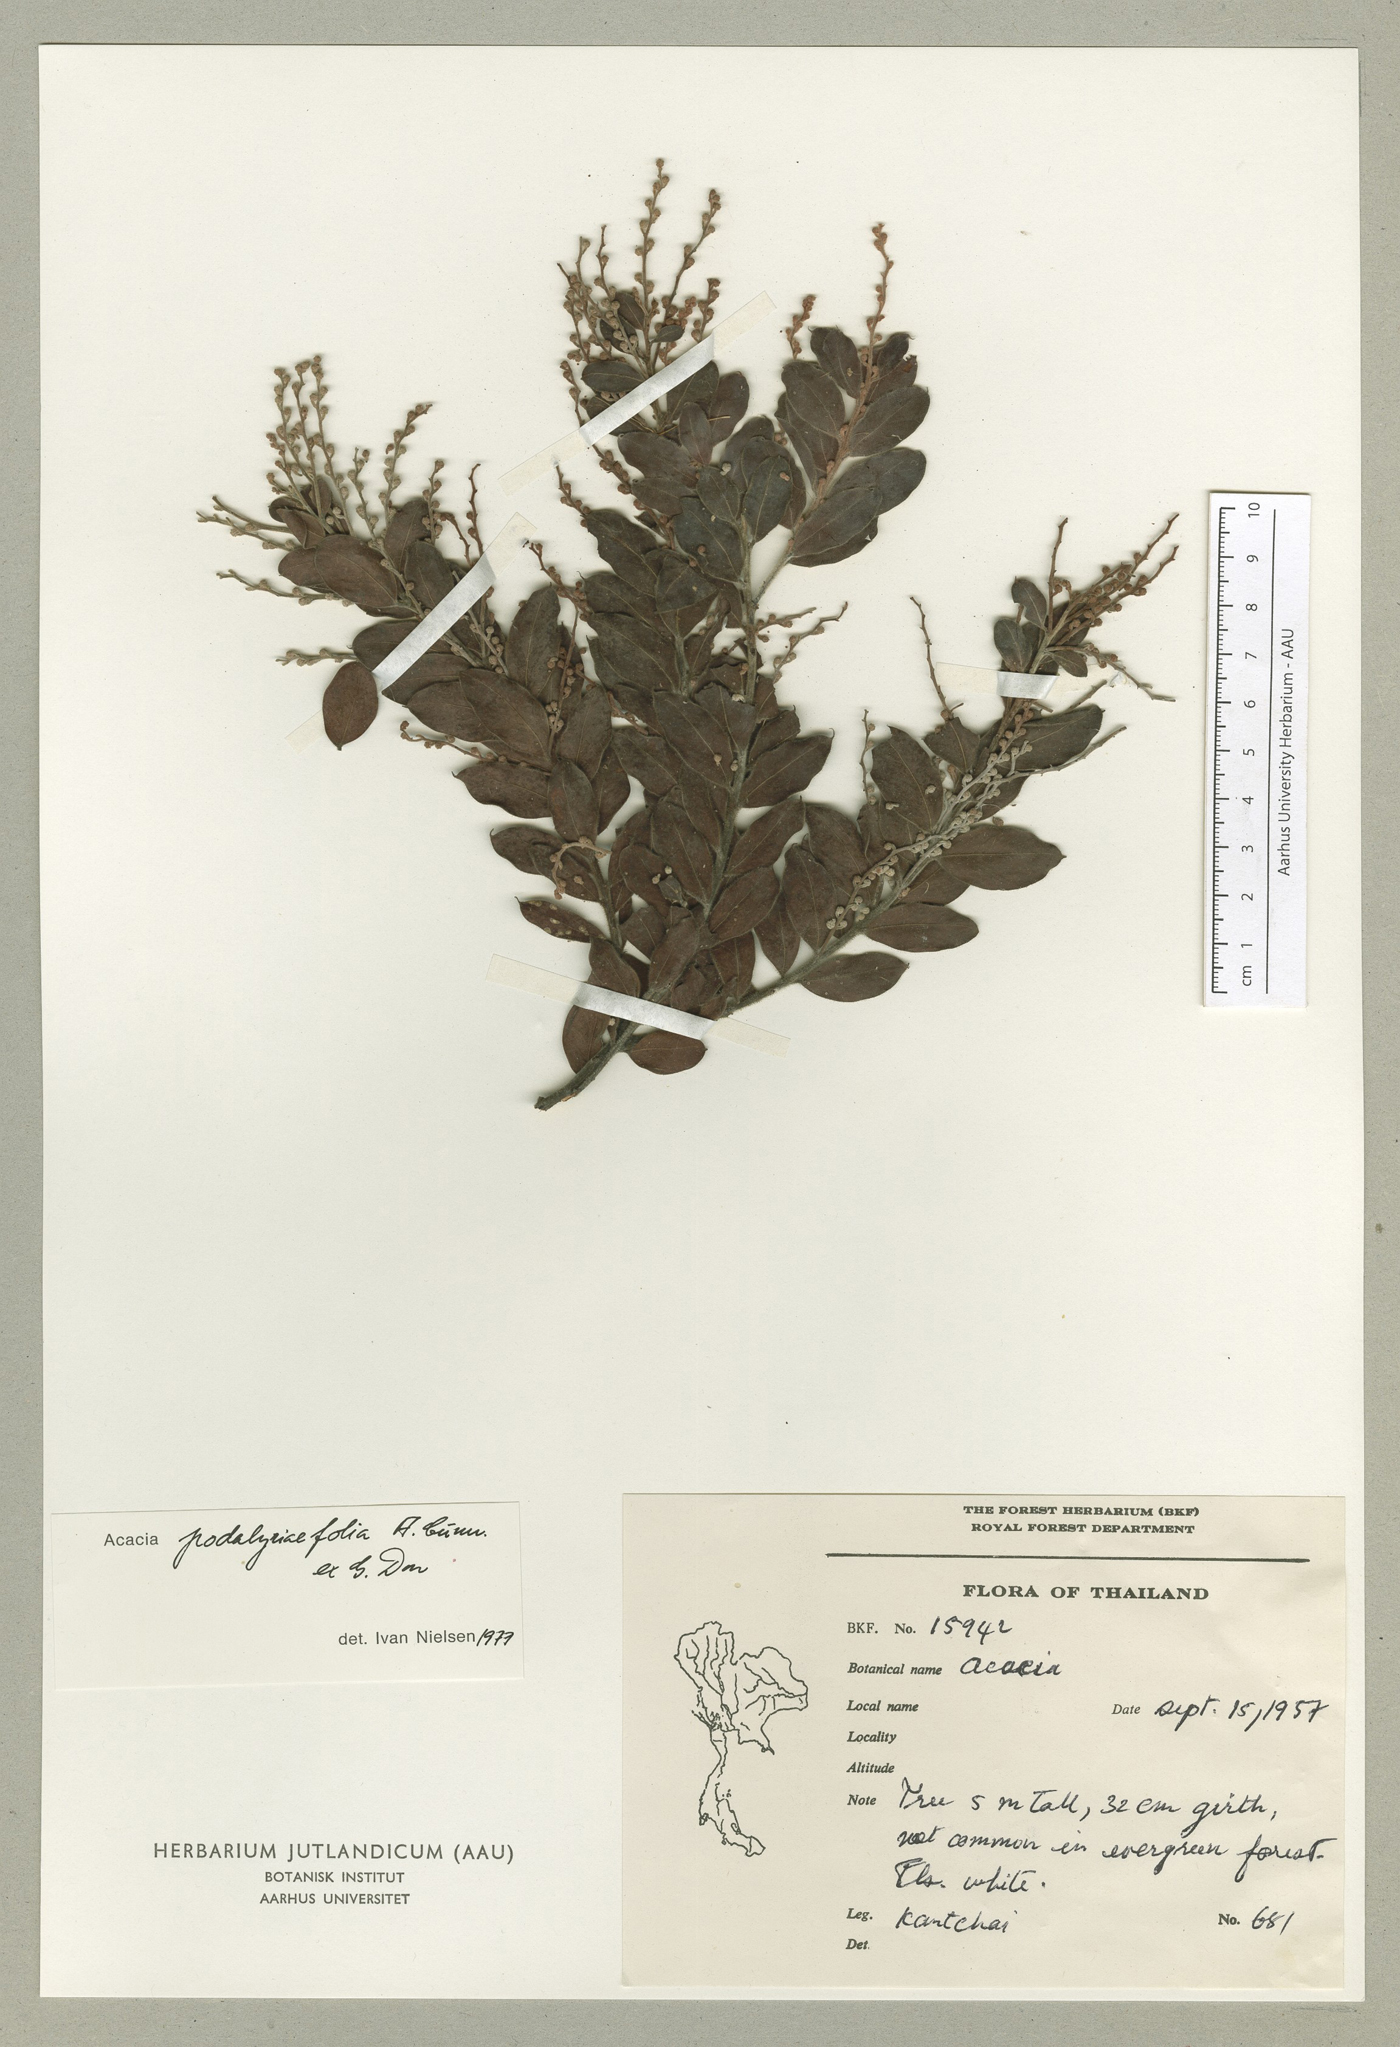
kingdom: Plantae
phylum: Tracheophyta
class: Magnoliopsida
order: Fabales
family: Fabaceae
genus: Acacia
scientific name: Acacia podalyriifolia
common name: Pearl wattle
